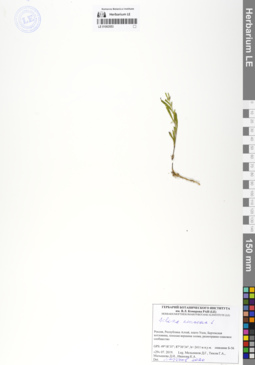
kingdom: Plantae
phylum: Tracheophyta
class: Magnoliopsida
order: Caryophyllales
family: Caryophyllaceae
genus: Silene
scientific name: Silene amoena
